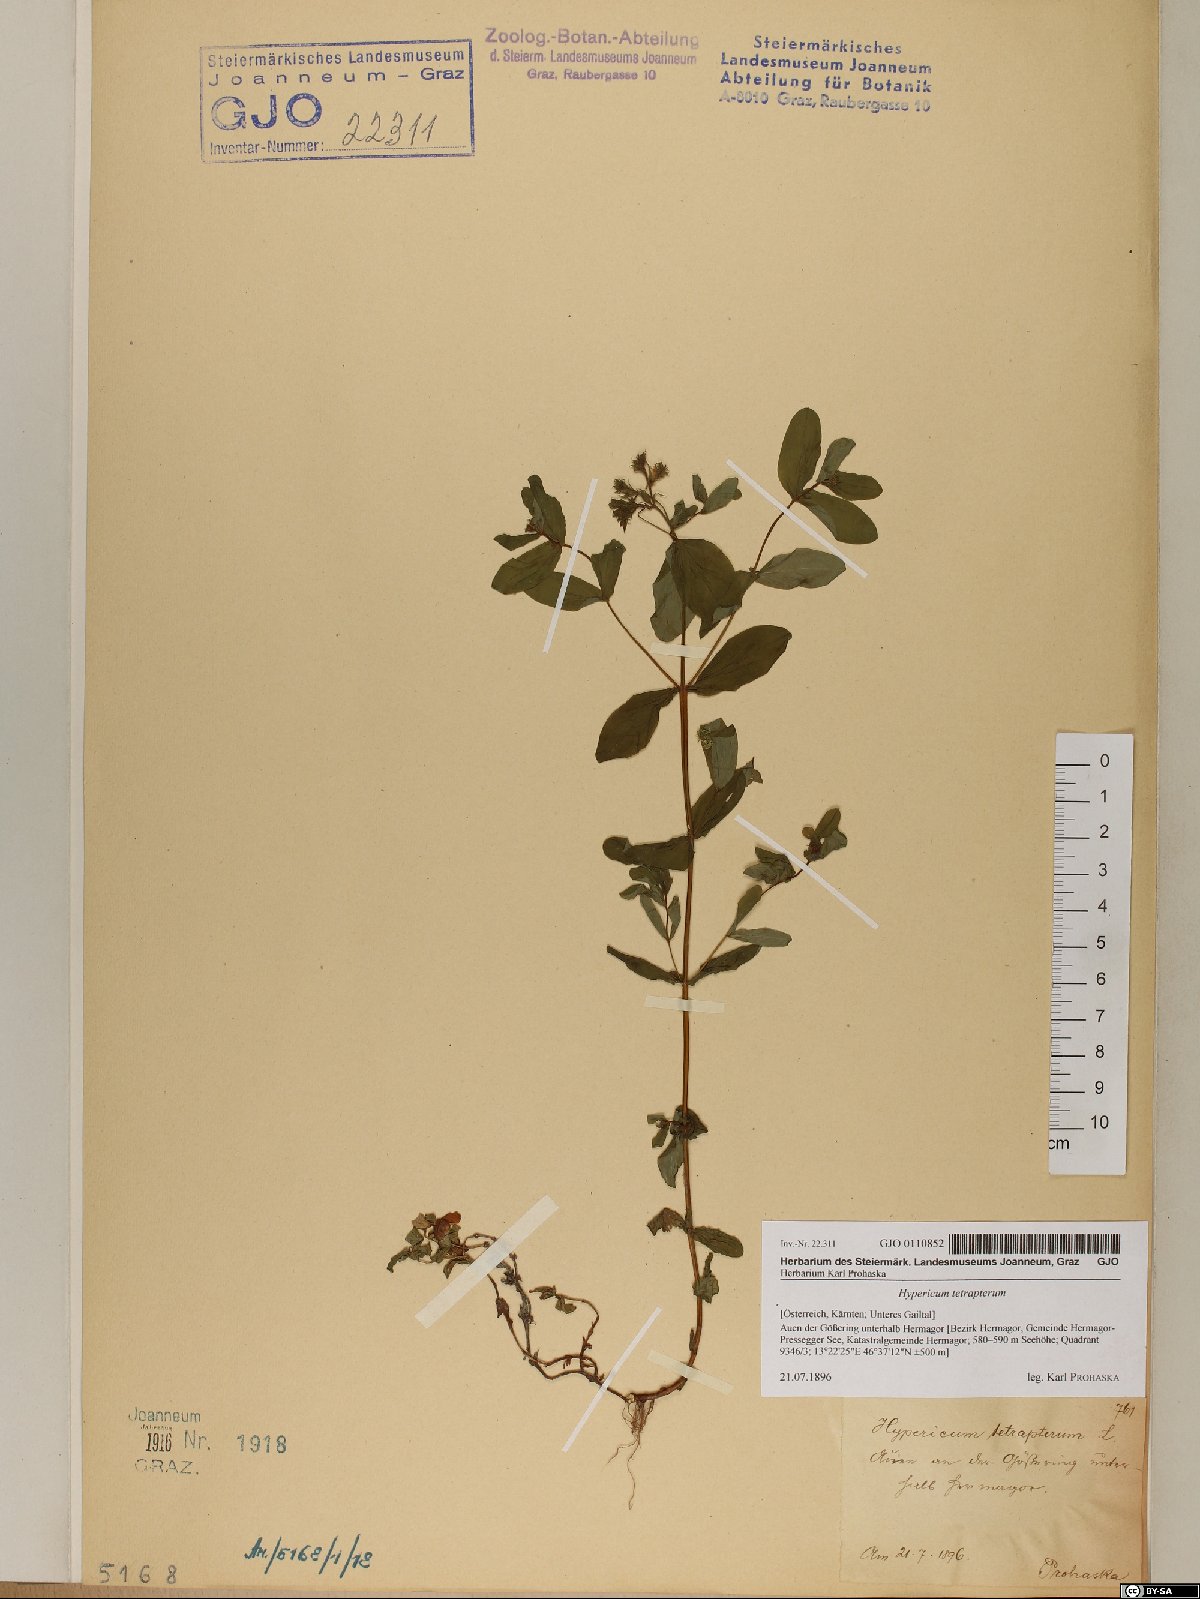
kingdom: Plantae
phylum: Tracheophyta
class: Magnoliopsida
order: Malpighiales
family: Hypericaceae
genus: Hypericum
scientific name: Hypericum tetrapterum
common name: Square-stalked st. john's-wort
